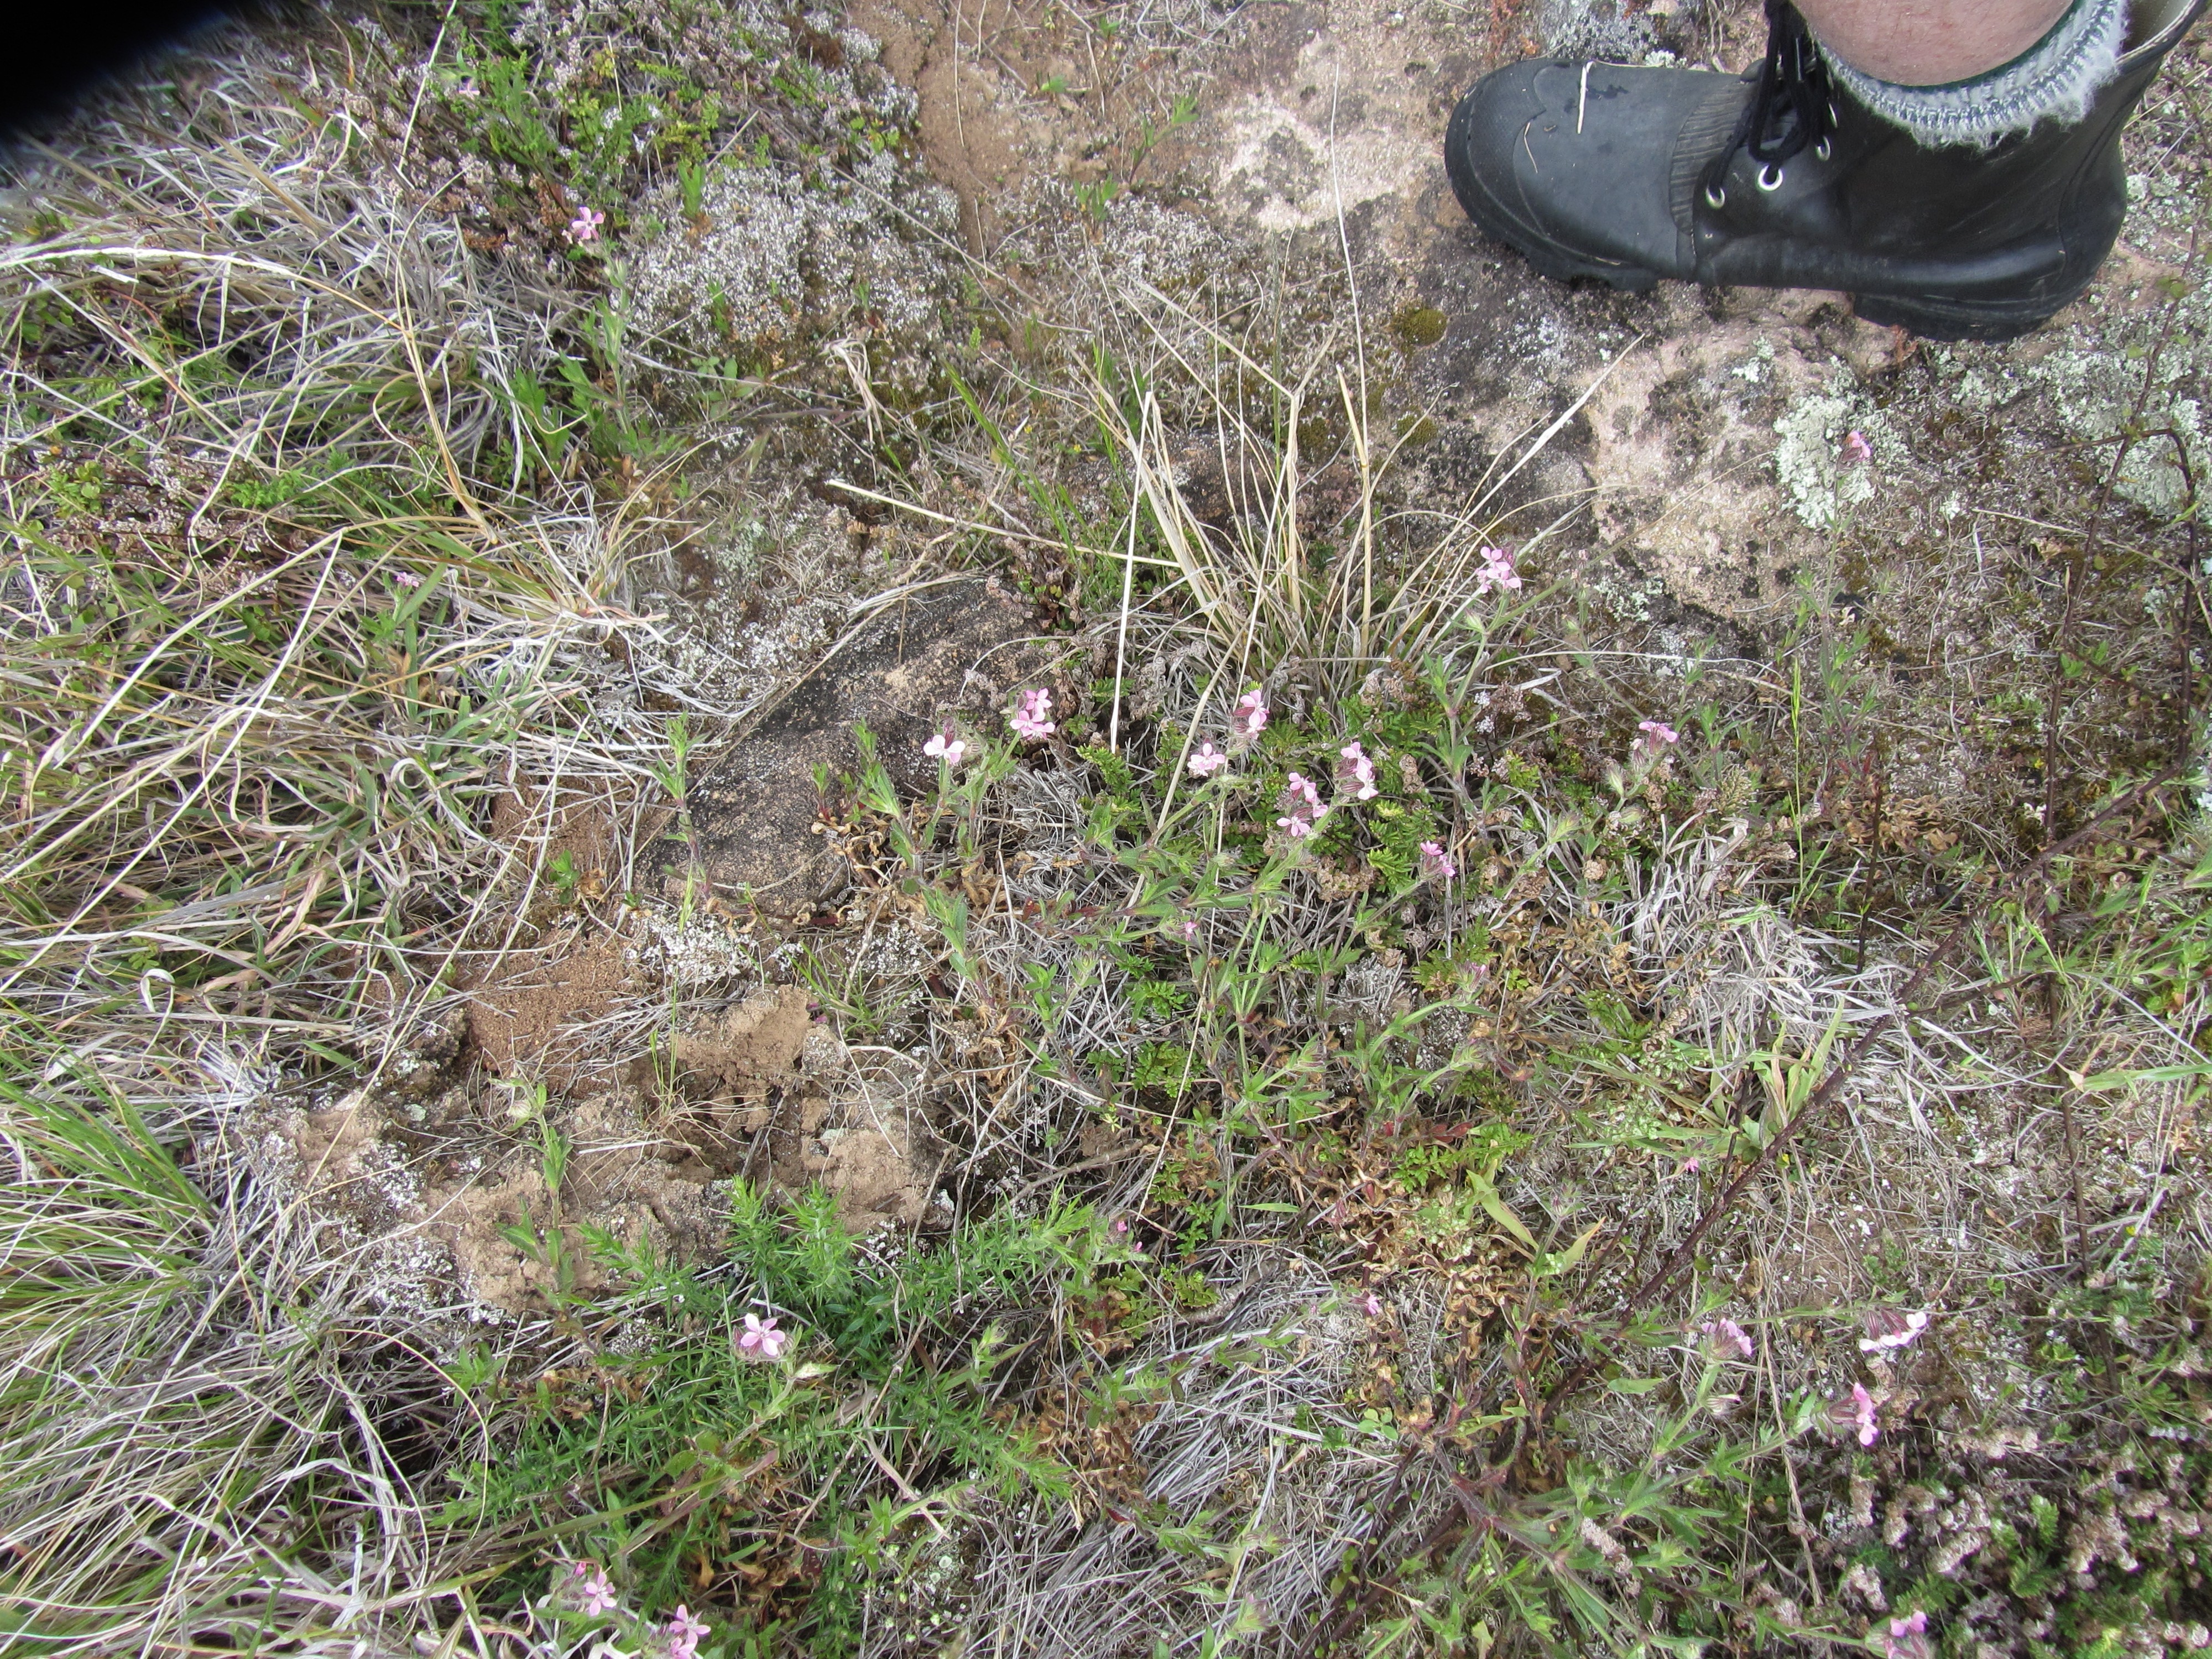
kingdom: Plantae
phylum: Tracheophyta
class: Magnoliopsida
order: Caryophyllales
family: Caryophyllaceae
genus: Silene
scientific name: Silene gallica
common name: Small-flowered catchfly
